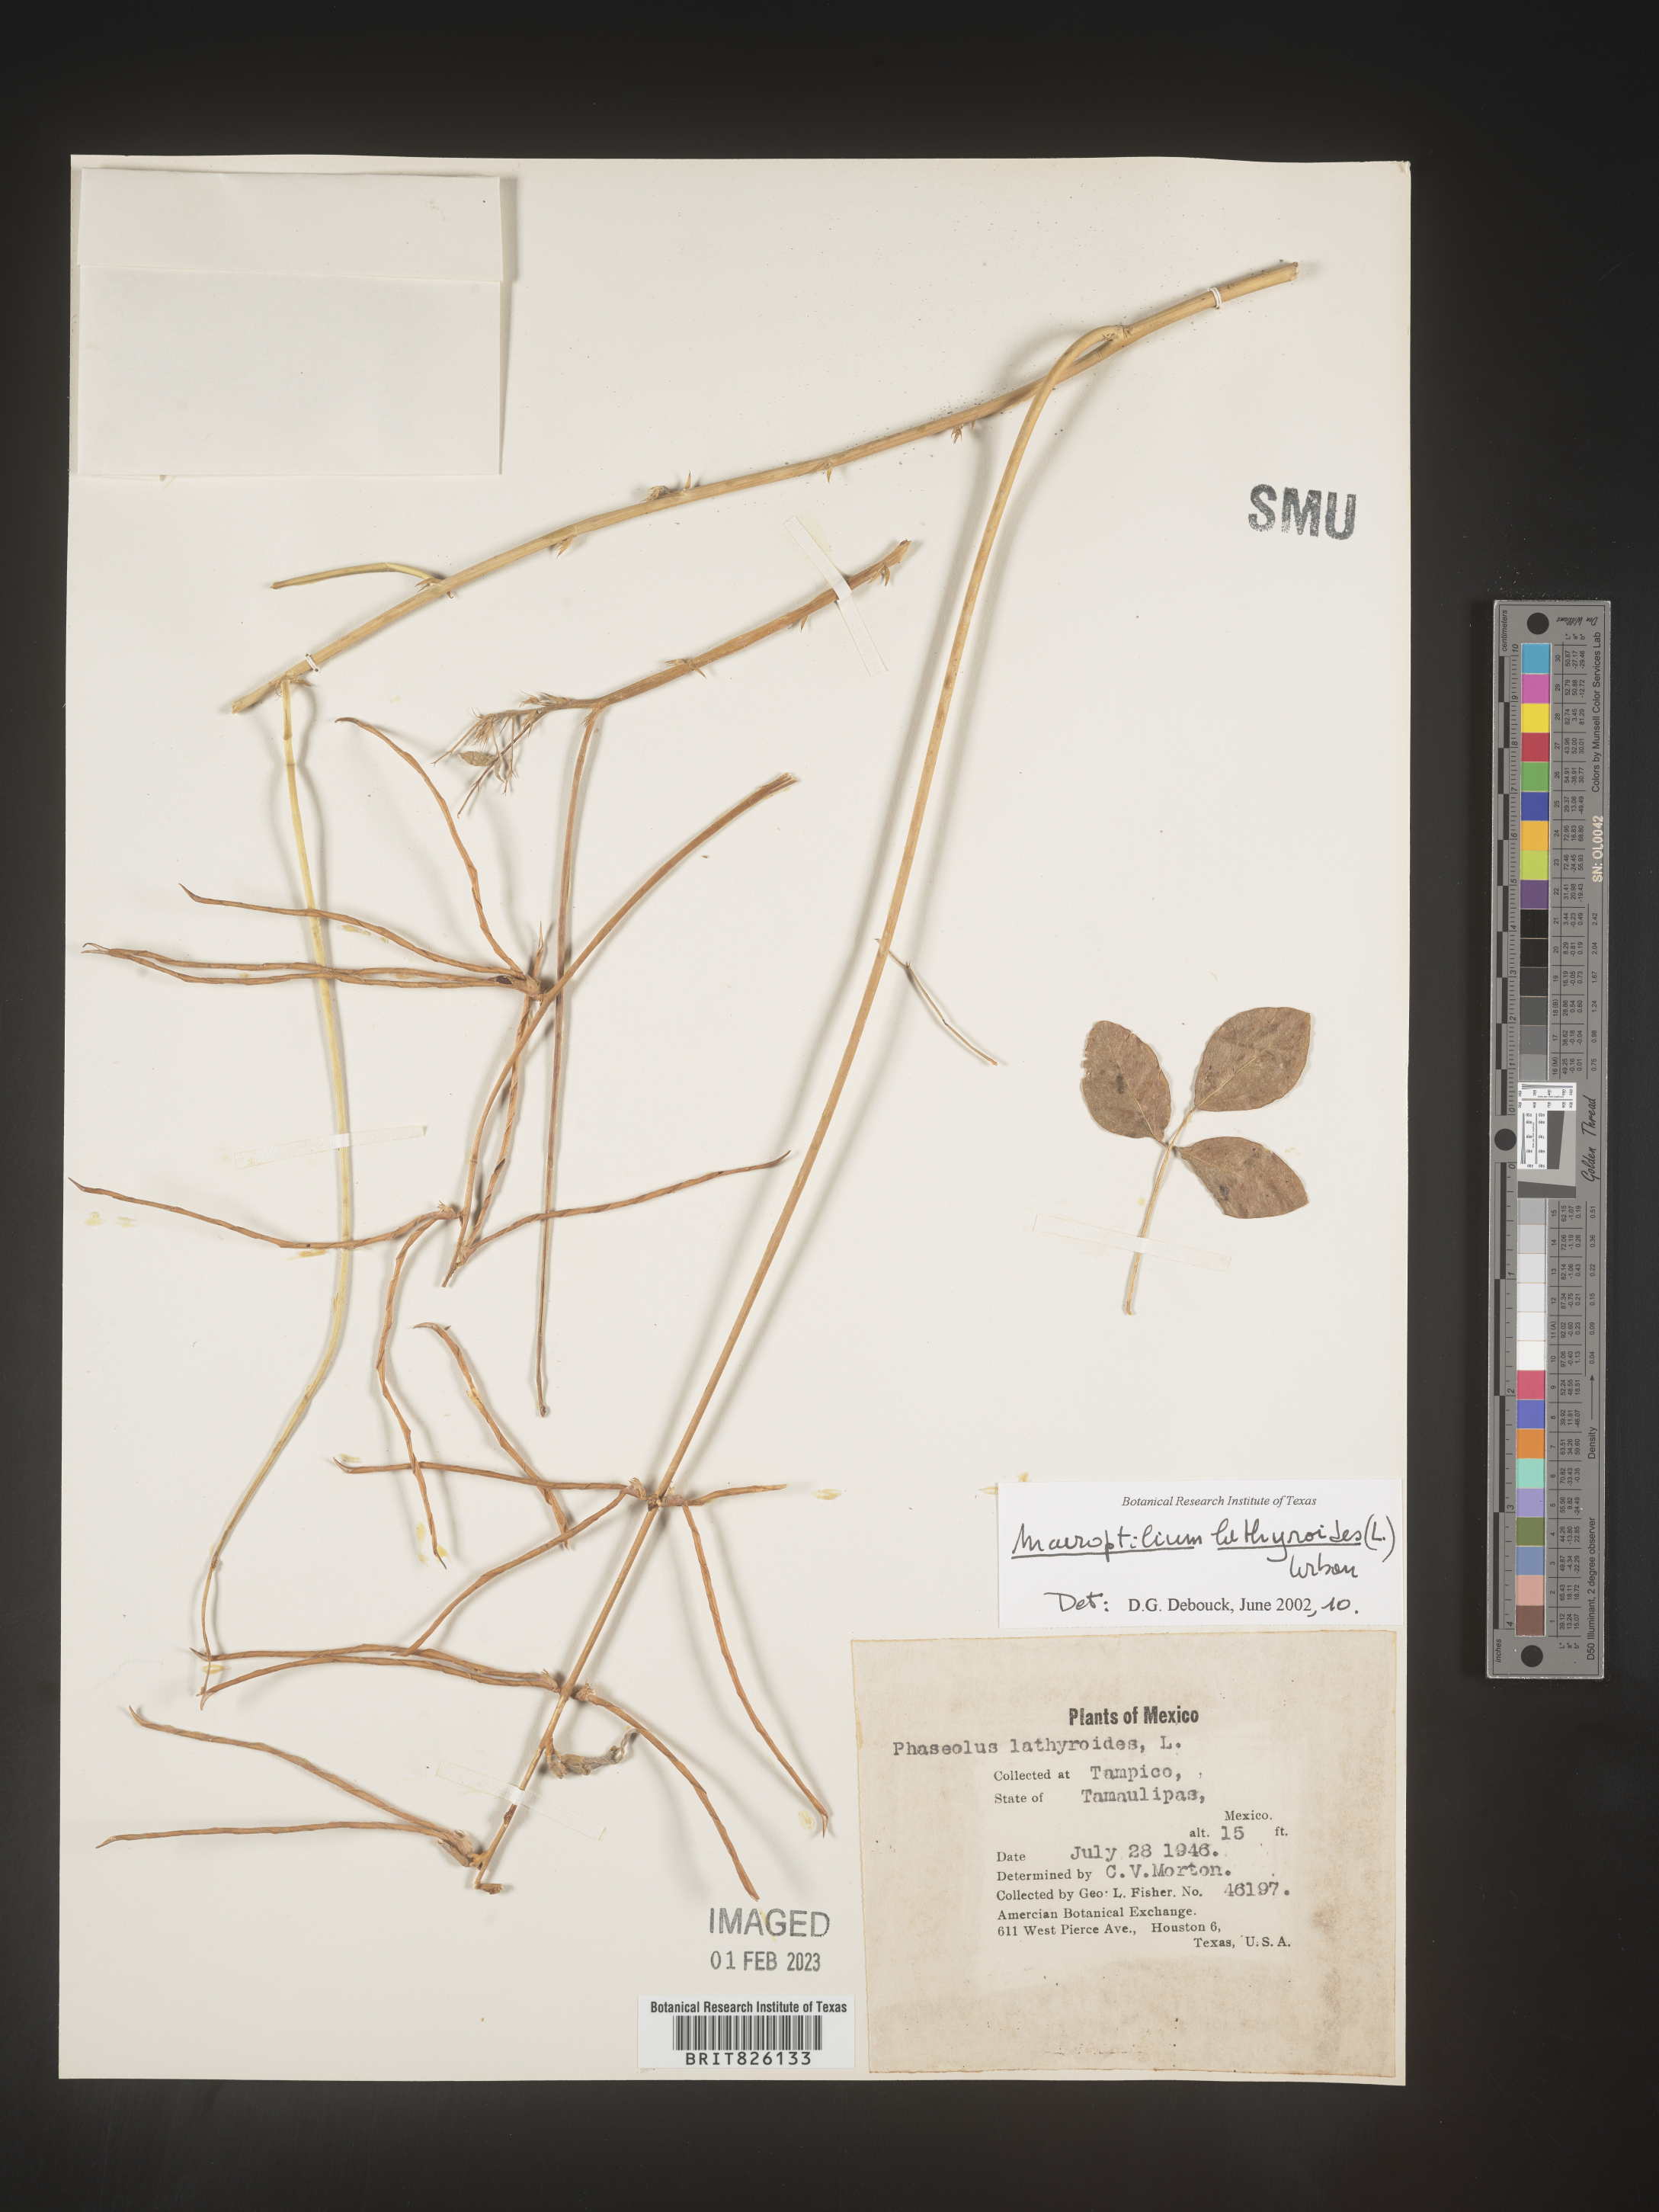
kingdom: Plantae
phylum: Tracheophyta
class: Magnoliopsida
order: Fabales
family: Fabaceae
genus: Macroptilium
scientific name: Macroptilium
